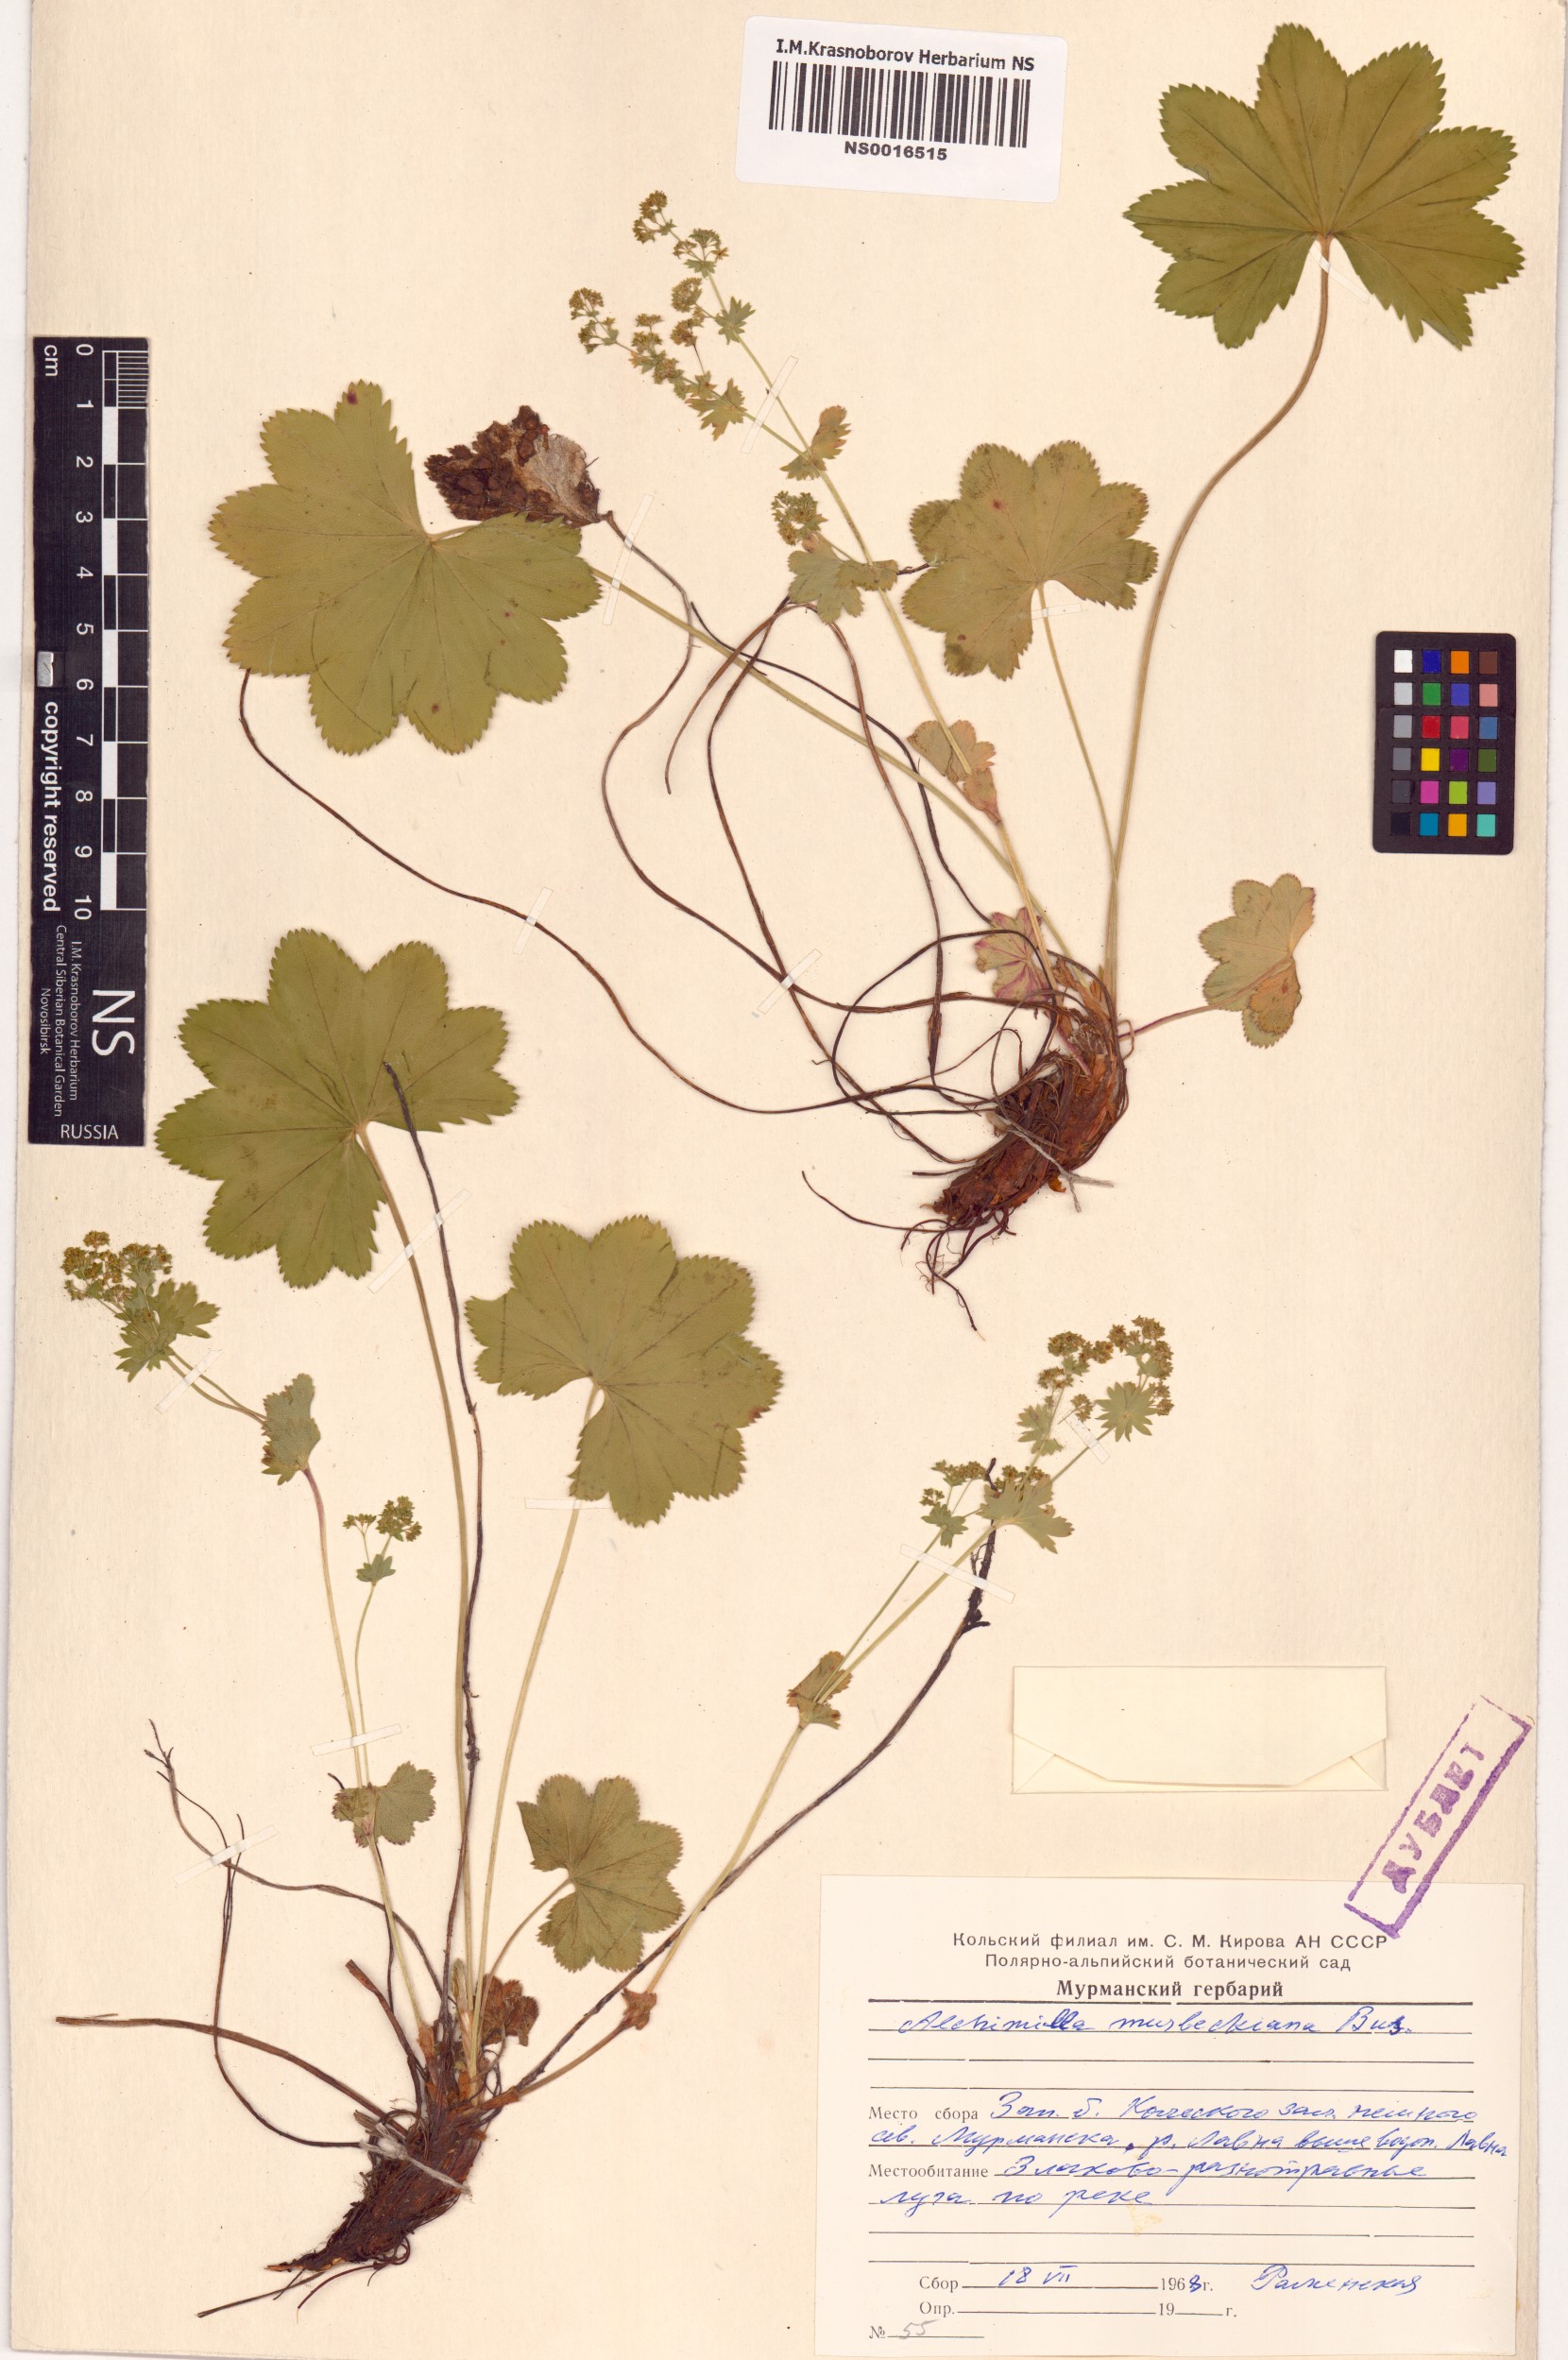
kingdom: Plantae
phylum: Tracheophyta
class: Magnoliopsida
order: Rosales
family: Rosaceae
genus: Alchemilla
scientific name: Alchemilla murbeckiana
